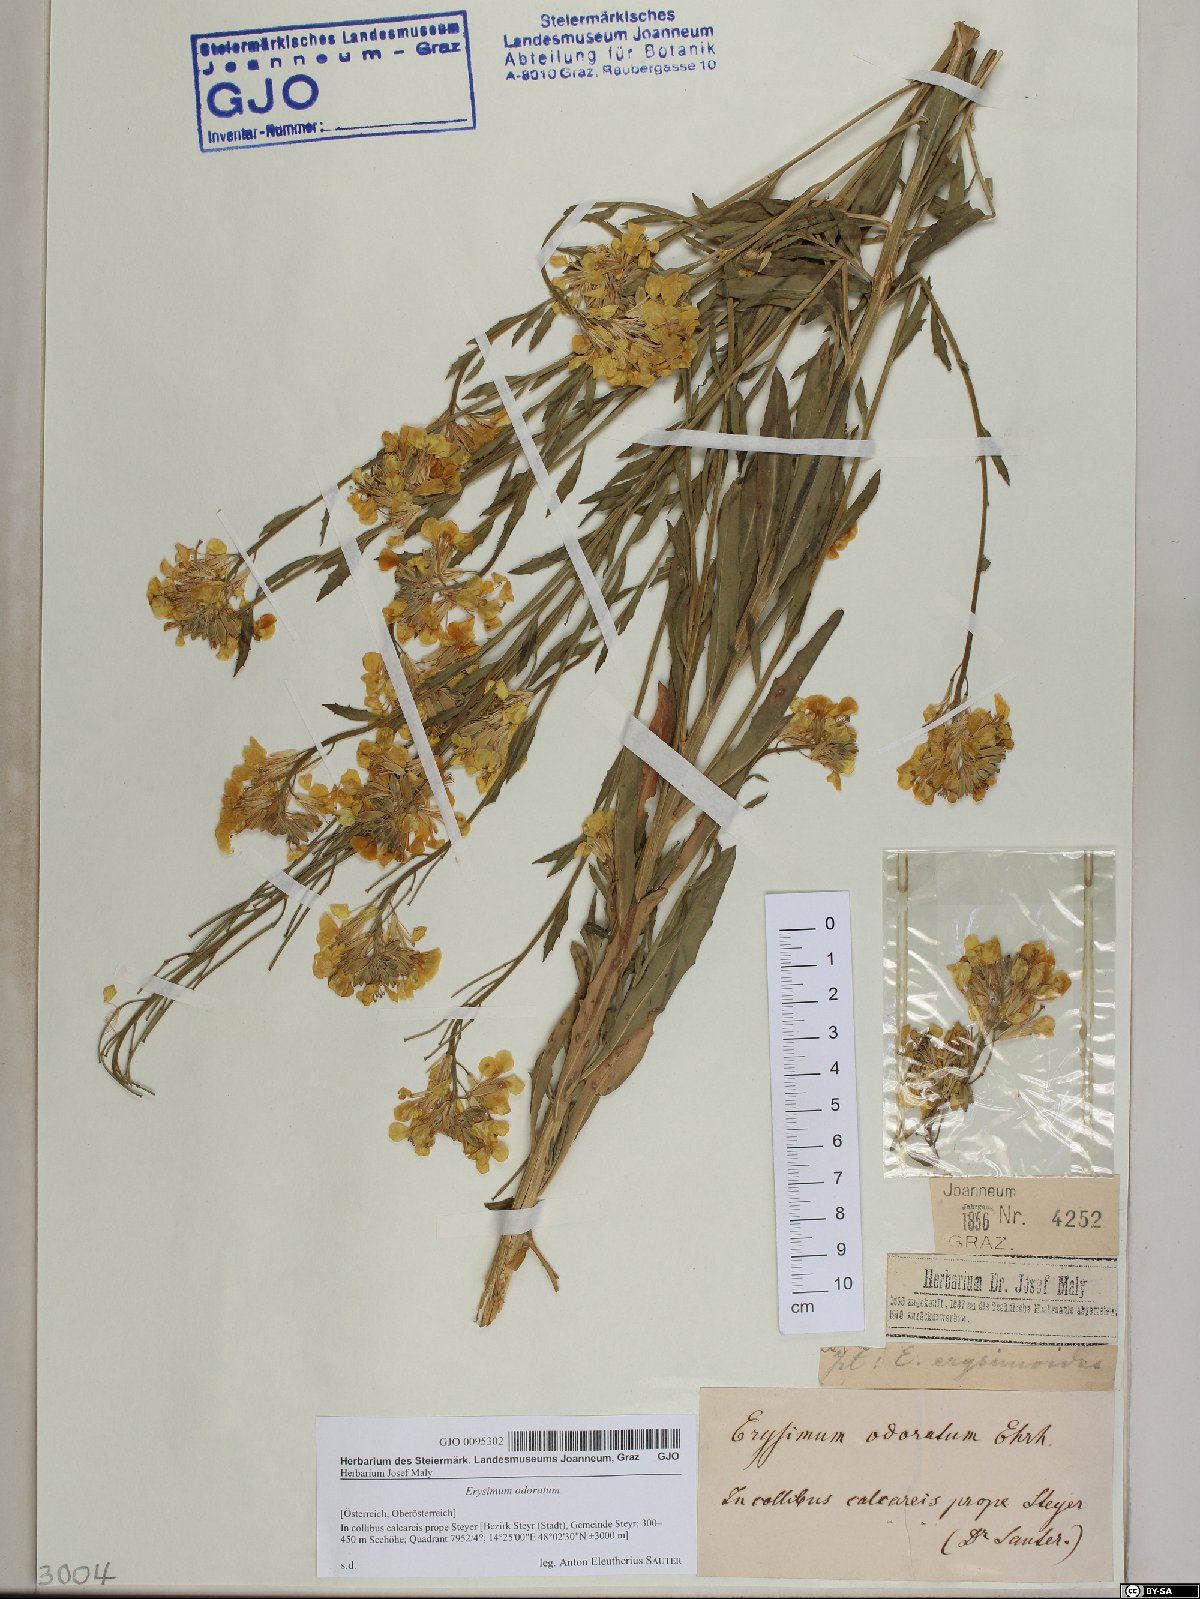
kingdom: Plantae
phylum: Tracheophyta
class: Magnoliopsida
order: Brassicales
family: Brassicaceae
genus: Erysimum
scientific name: Erysimum odoratum
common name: Smelly wallflower
